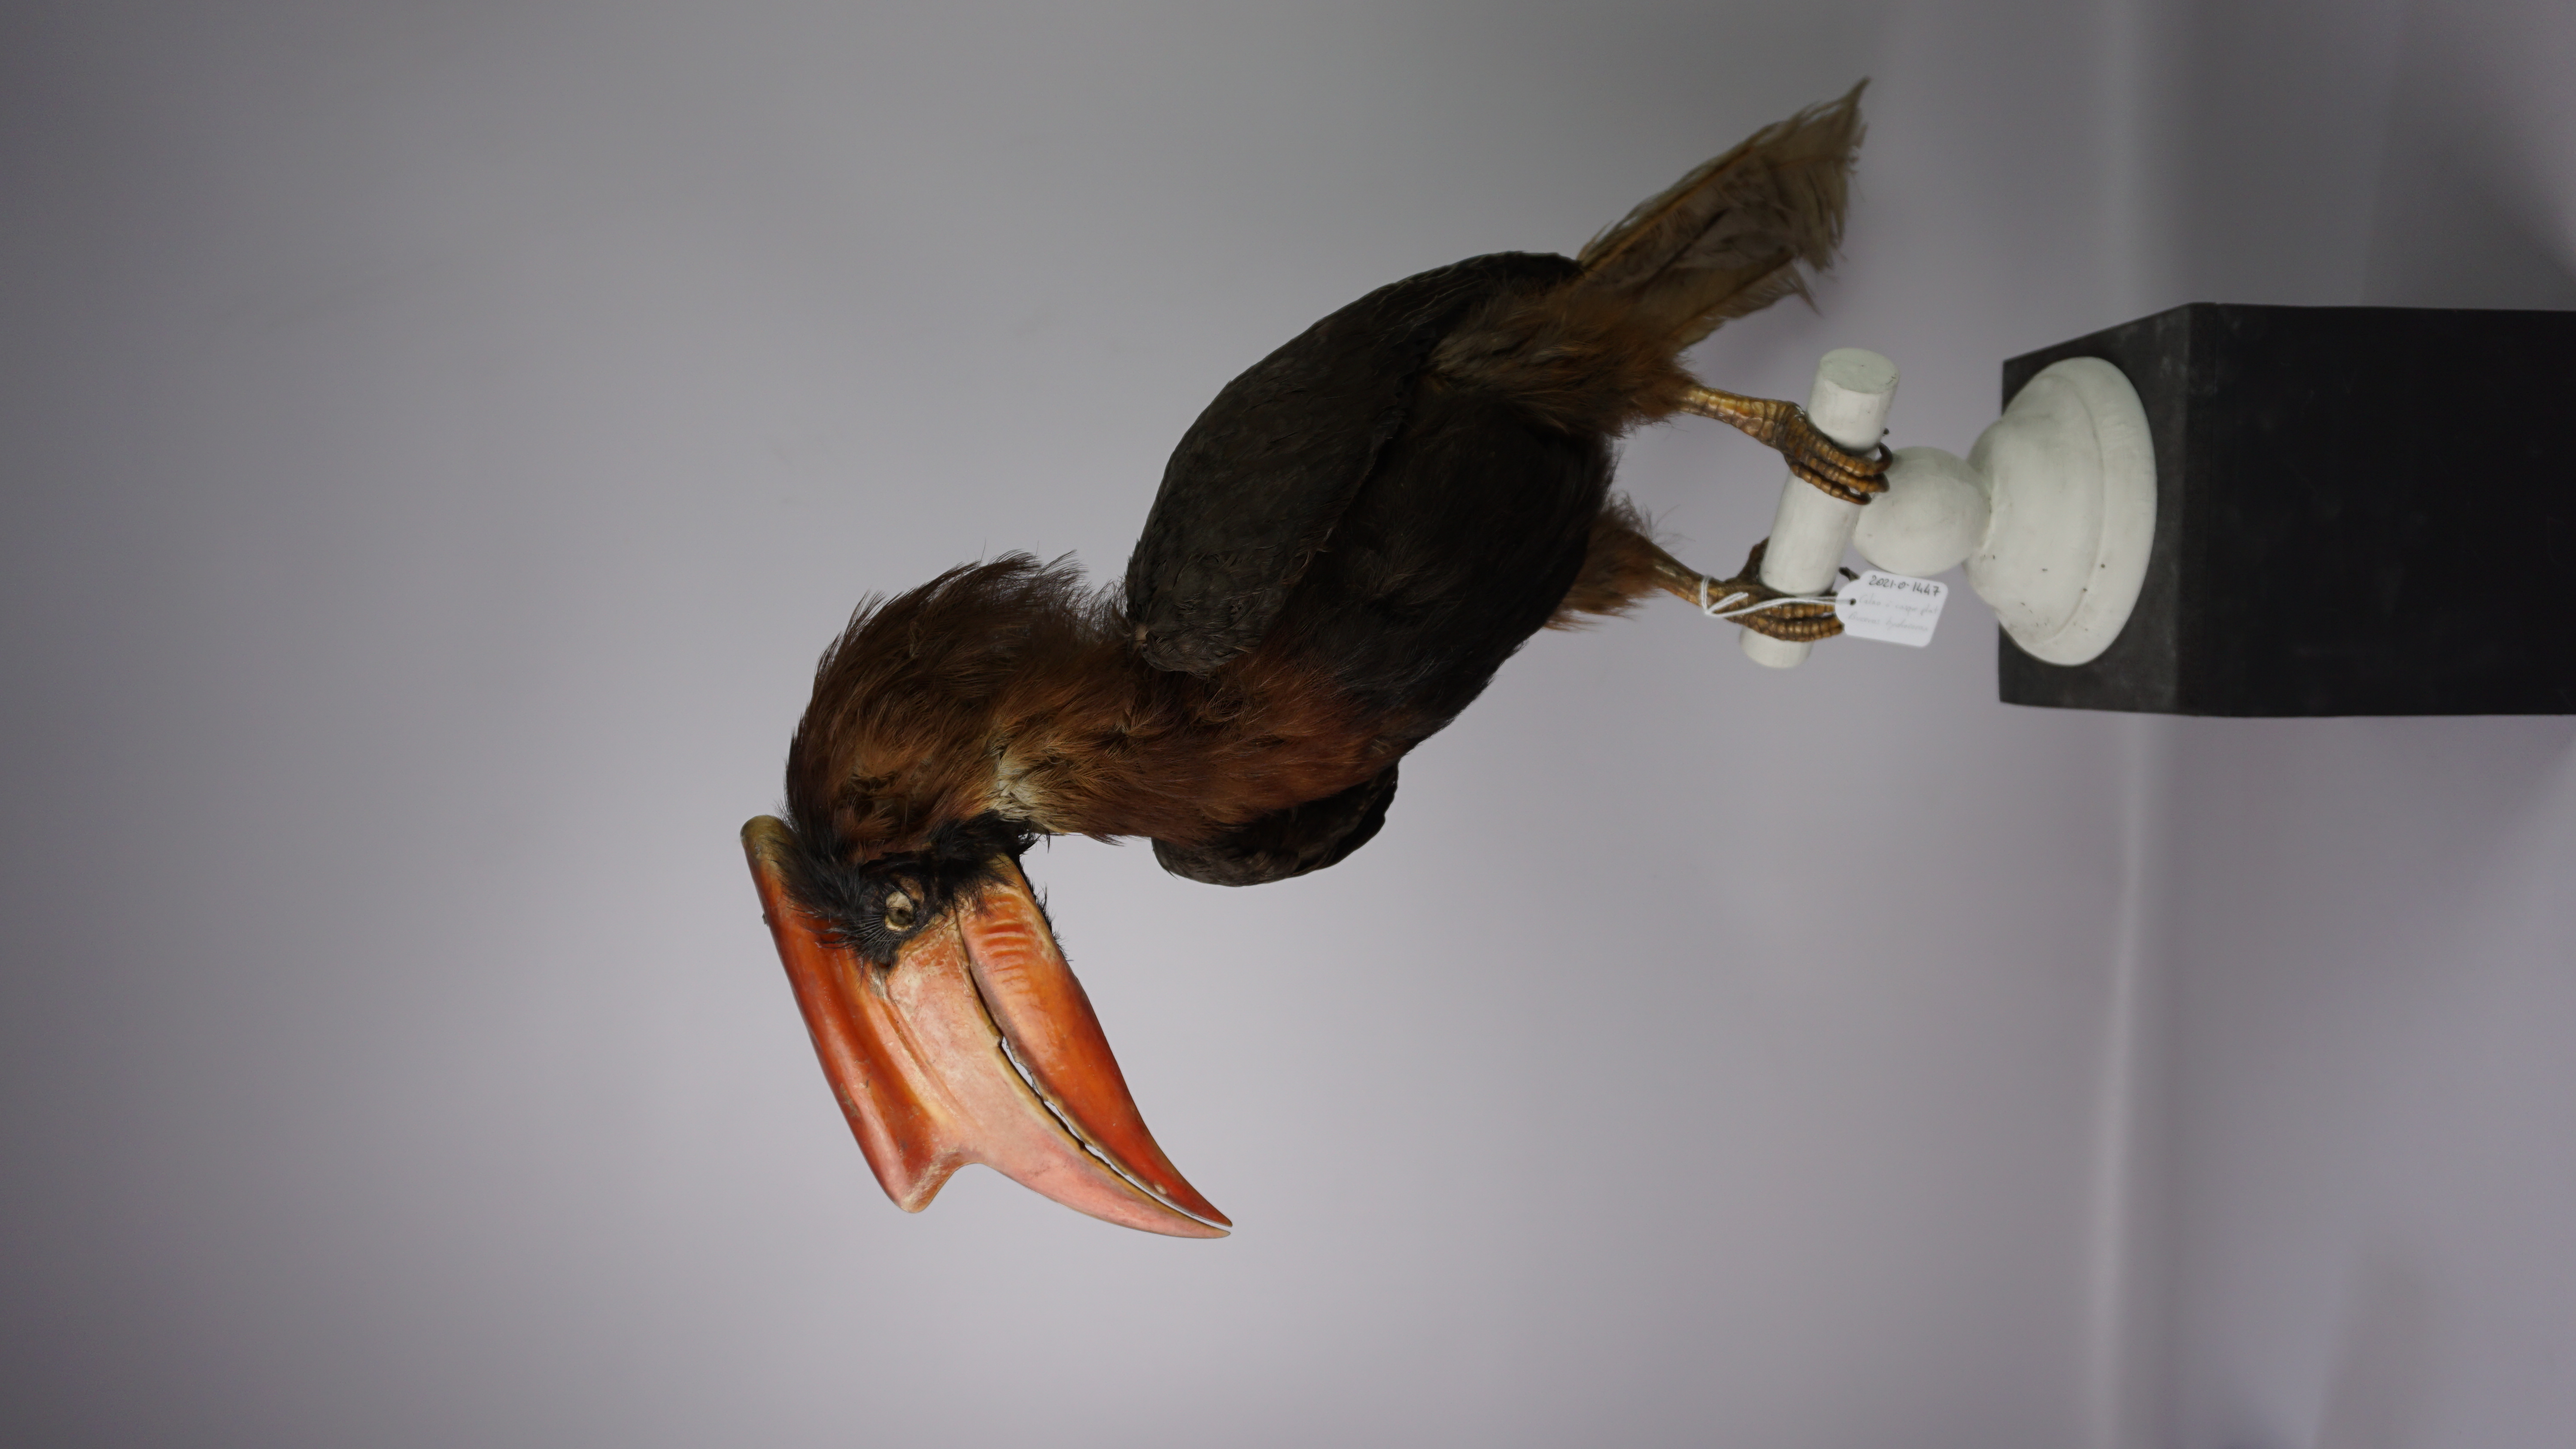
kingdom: Animalia
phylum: Chordata
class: Aves
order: Bucerotiformes
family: Bucerotidae
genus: Buceros
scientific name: Buceros hydrocorax
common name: Rufous hornbill
